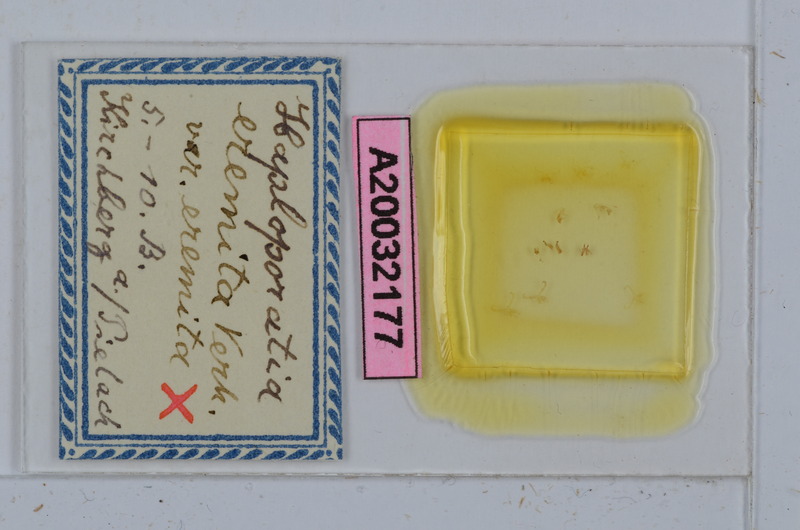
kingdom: Animalia
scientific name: Animalia
